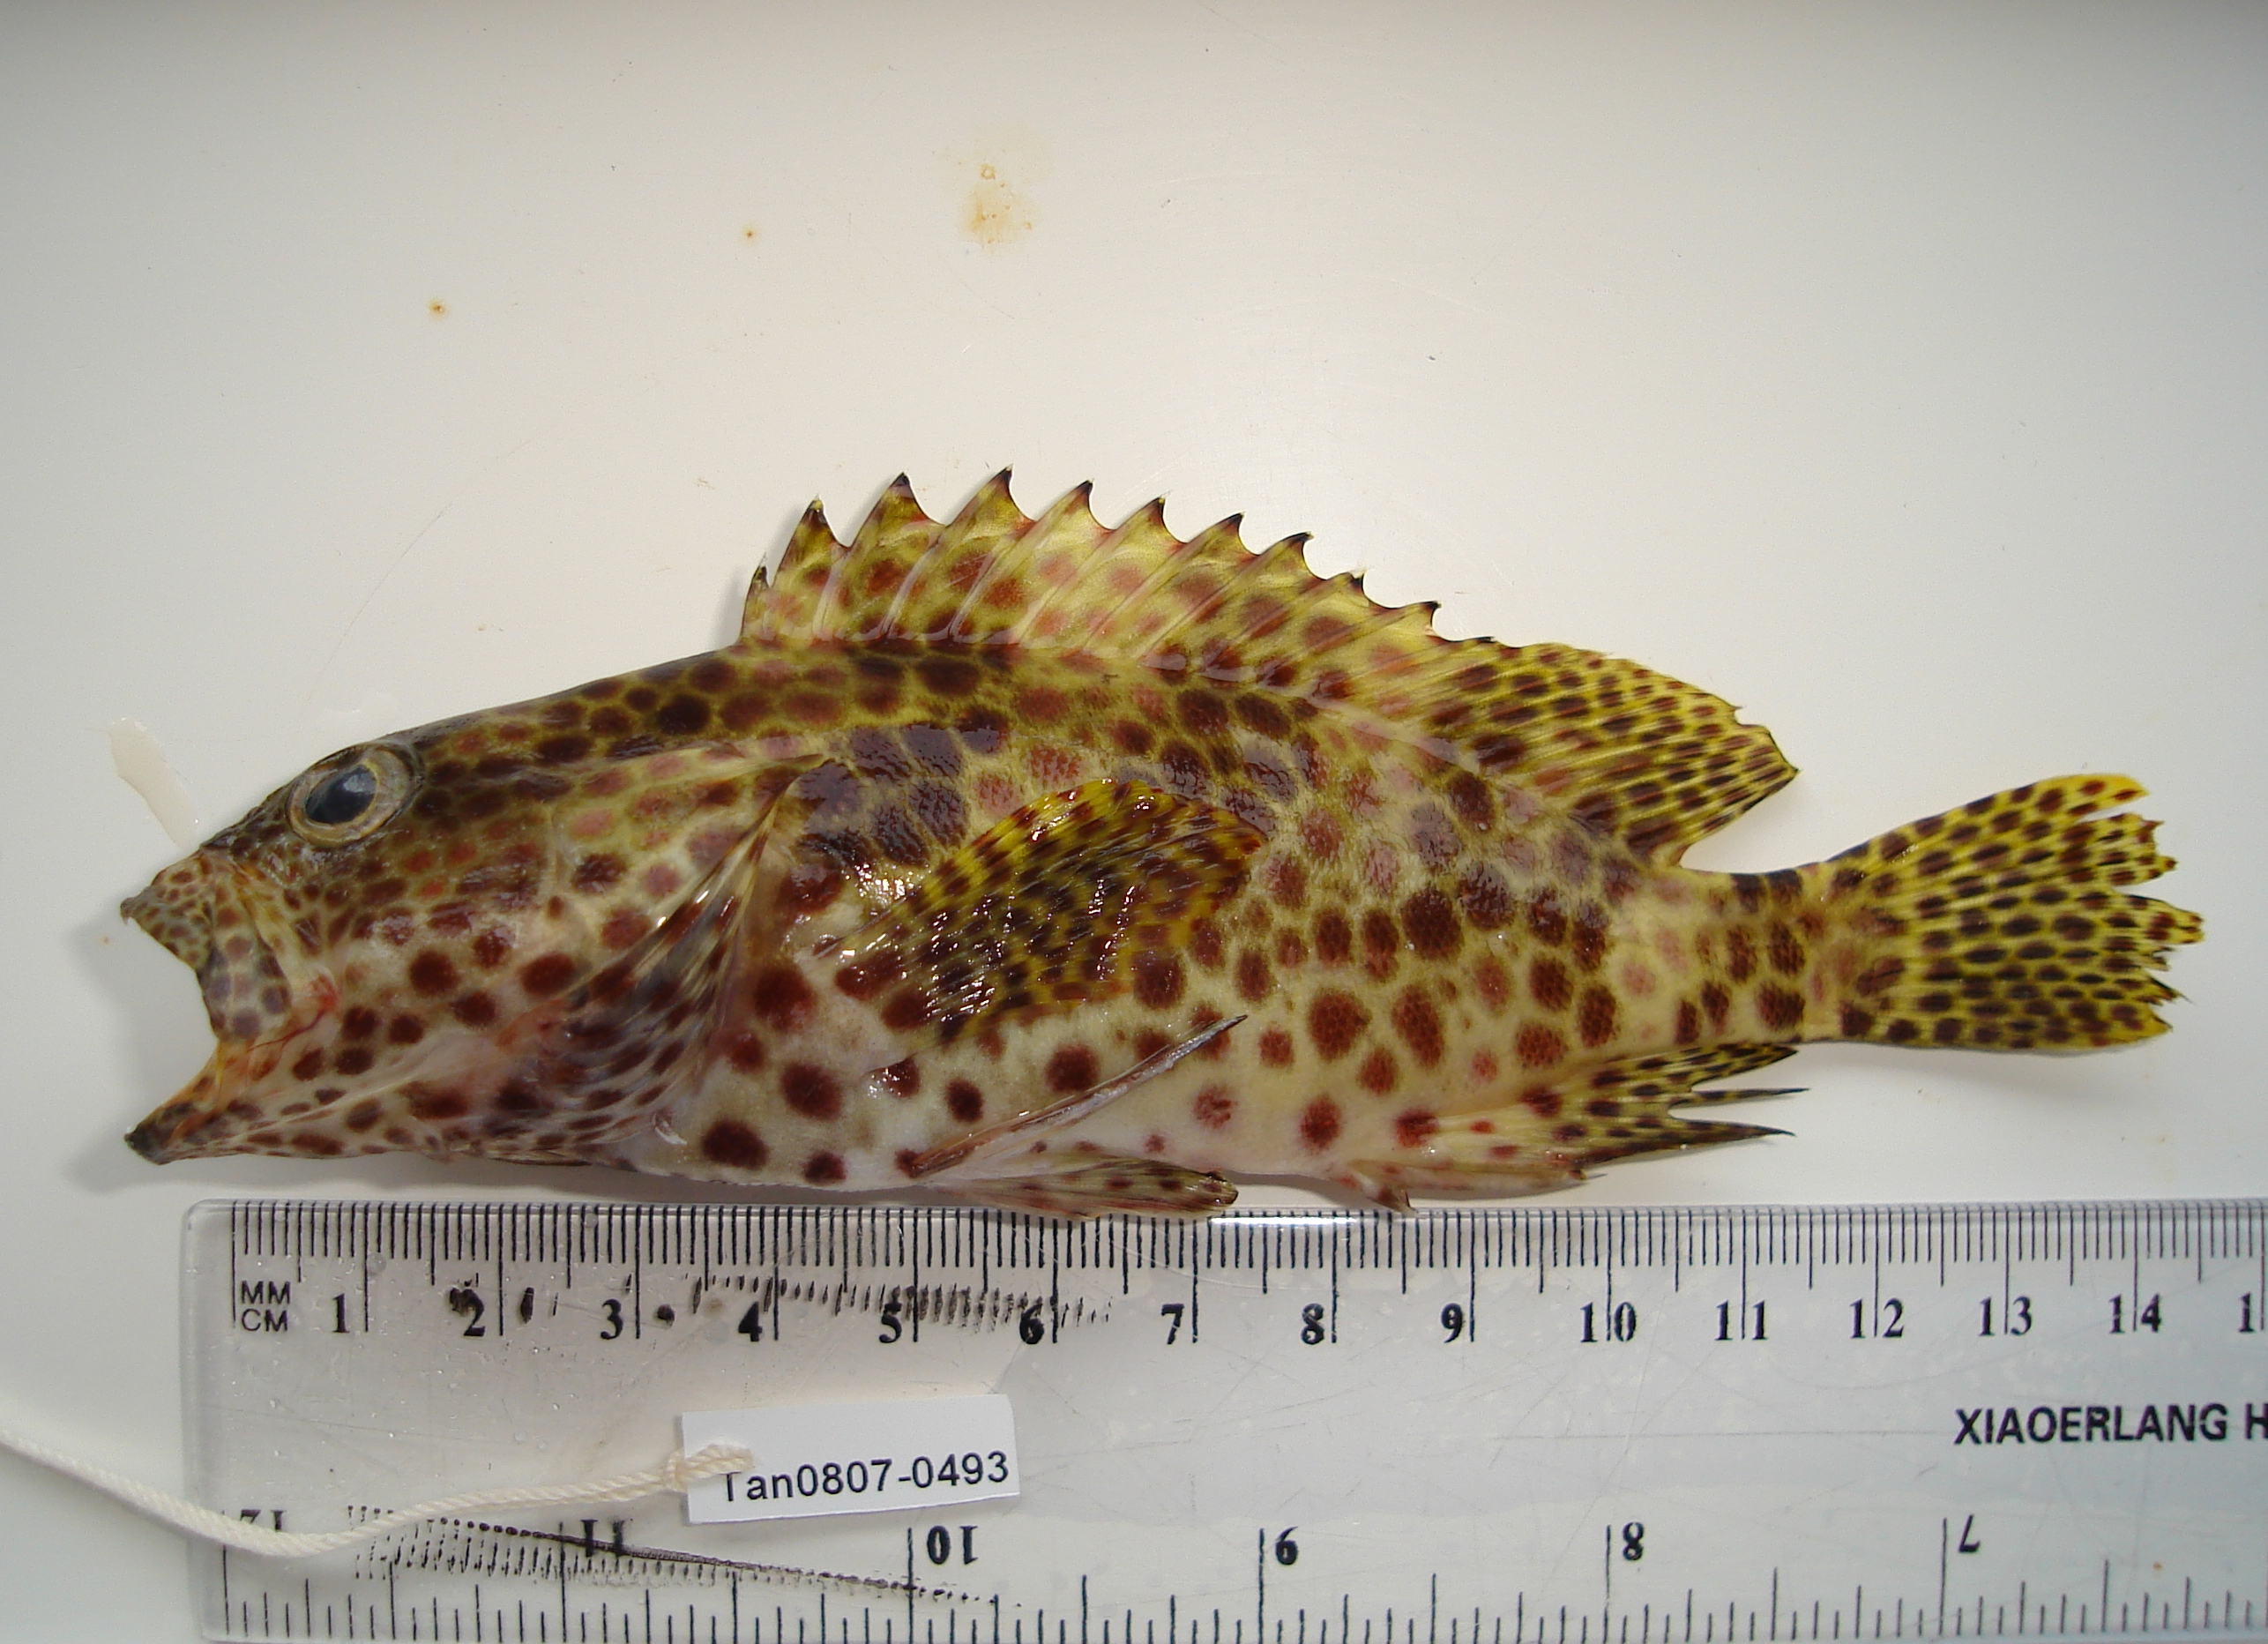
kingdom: Animalia
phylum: Chordata
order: Perciformes
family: Serranidae
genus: Epinephelus
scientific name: Epinephelus merra
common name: Honeycomb grouper
